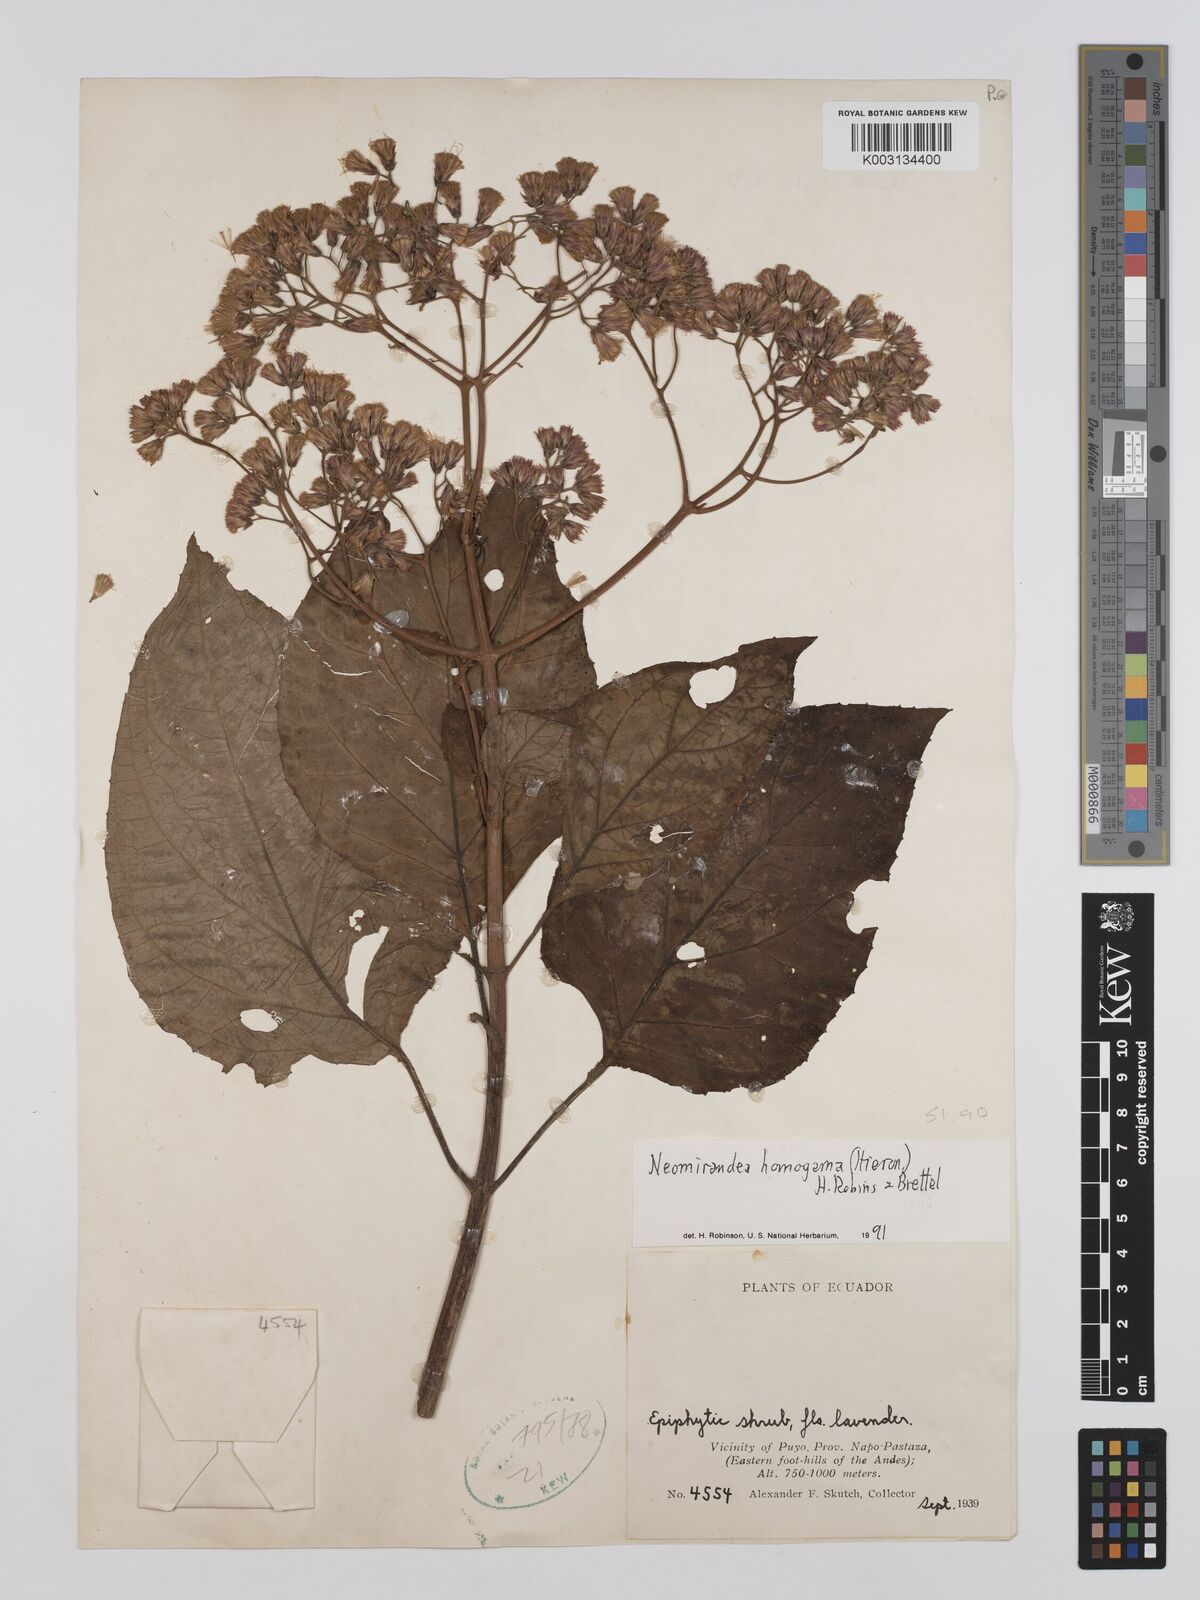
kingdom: Plantae
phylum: Tracheophyta
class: Magnoliopsida
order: Asterales
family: Asteraceae
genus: Neomirandea
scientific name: Neomirandea homogama
